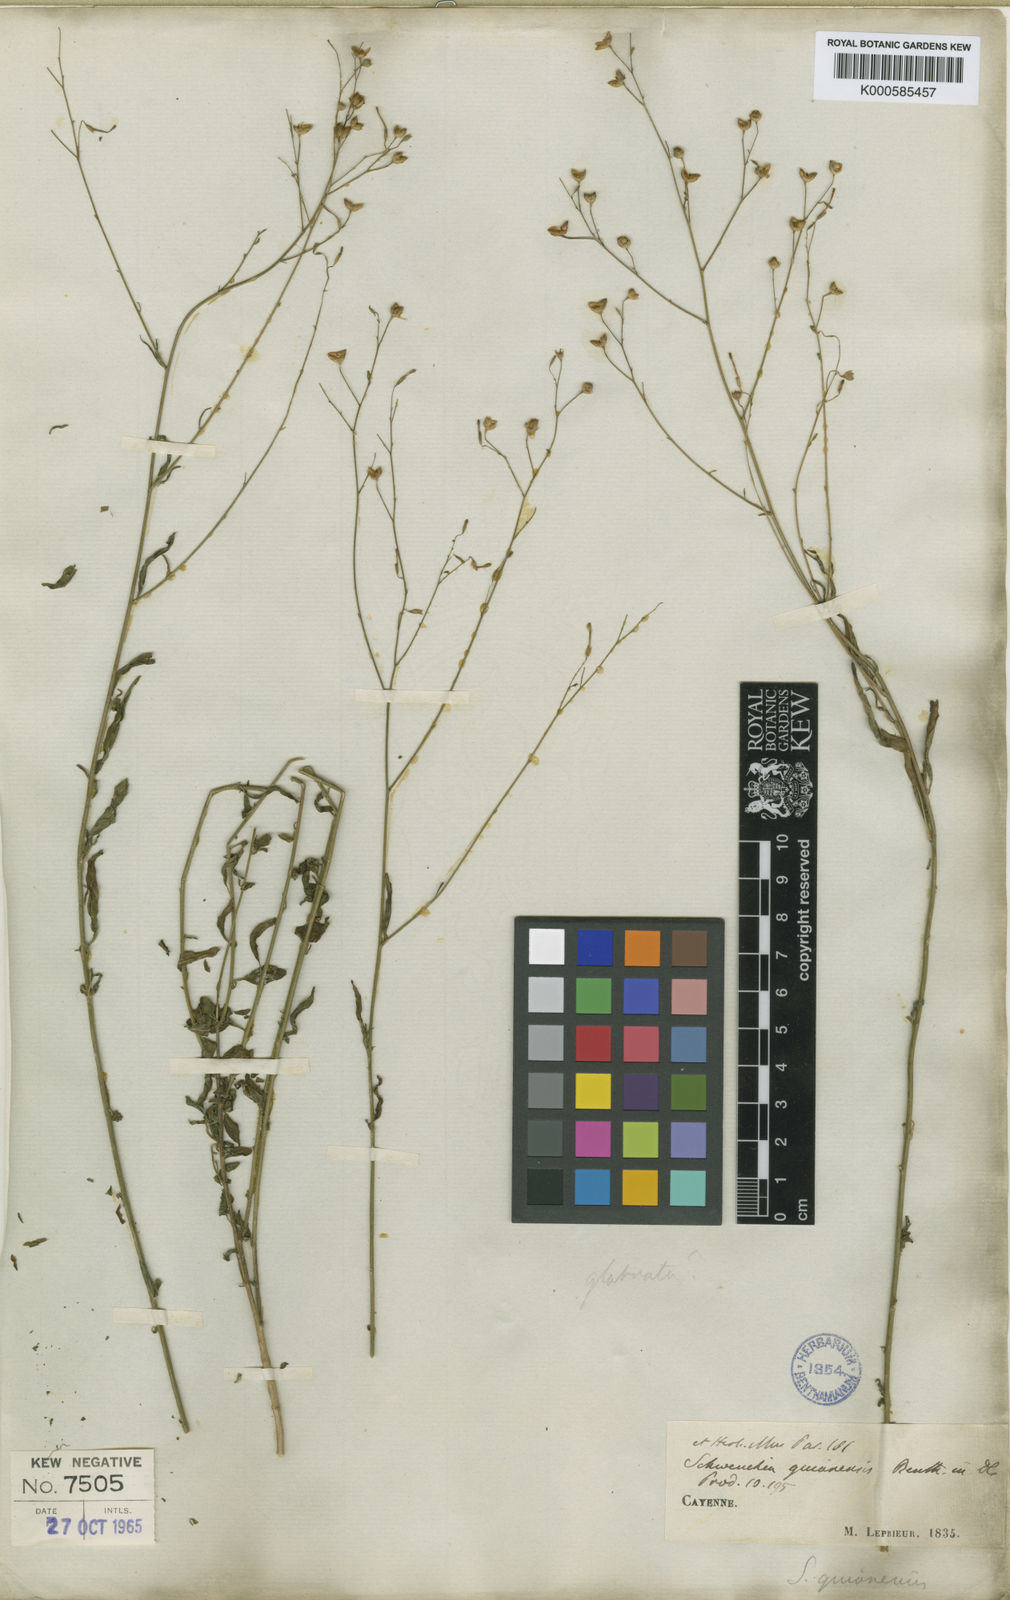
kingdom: Plantae
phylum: Tracheophyta
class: Magnoliopsida
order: Solanales
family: Solanaceae
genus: Schwenckia
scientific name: Schwenckia americana
